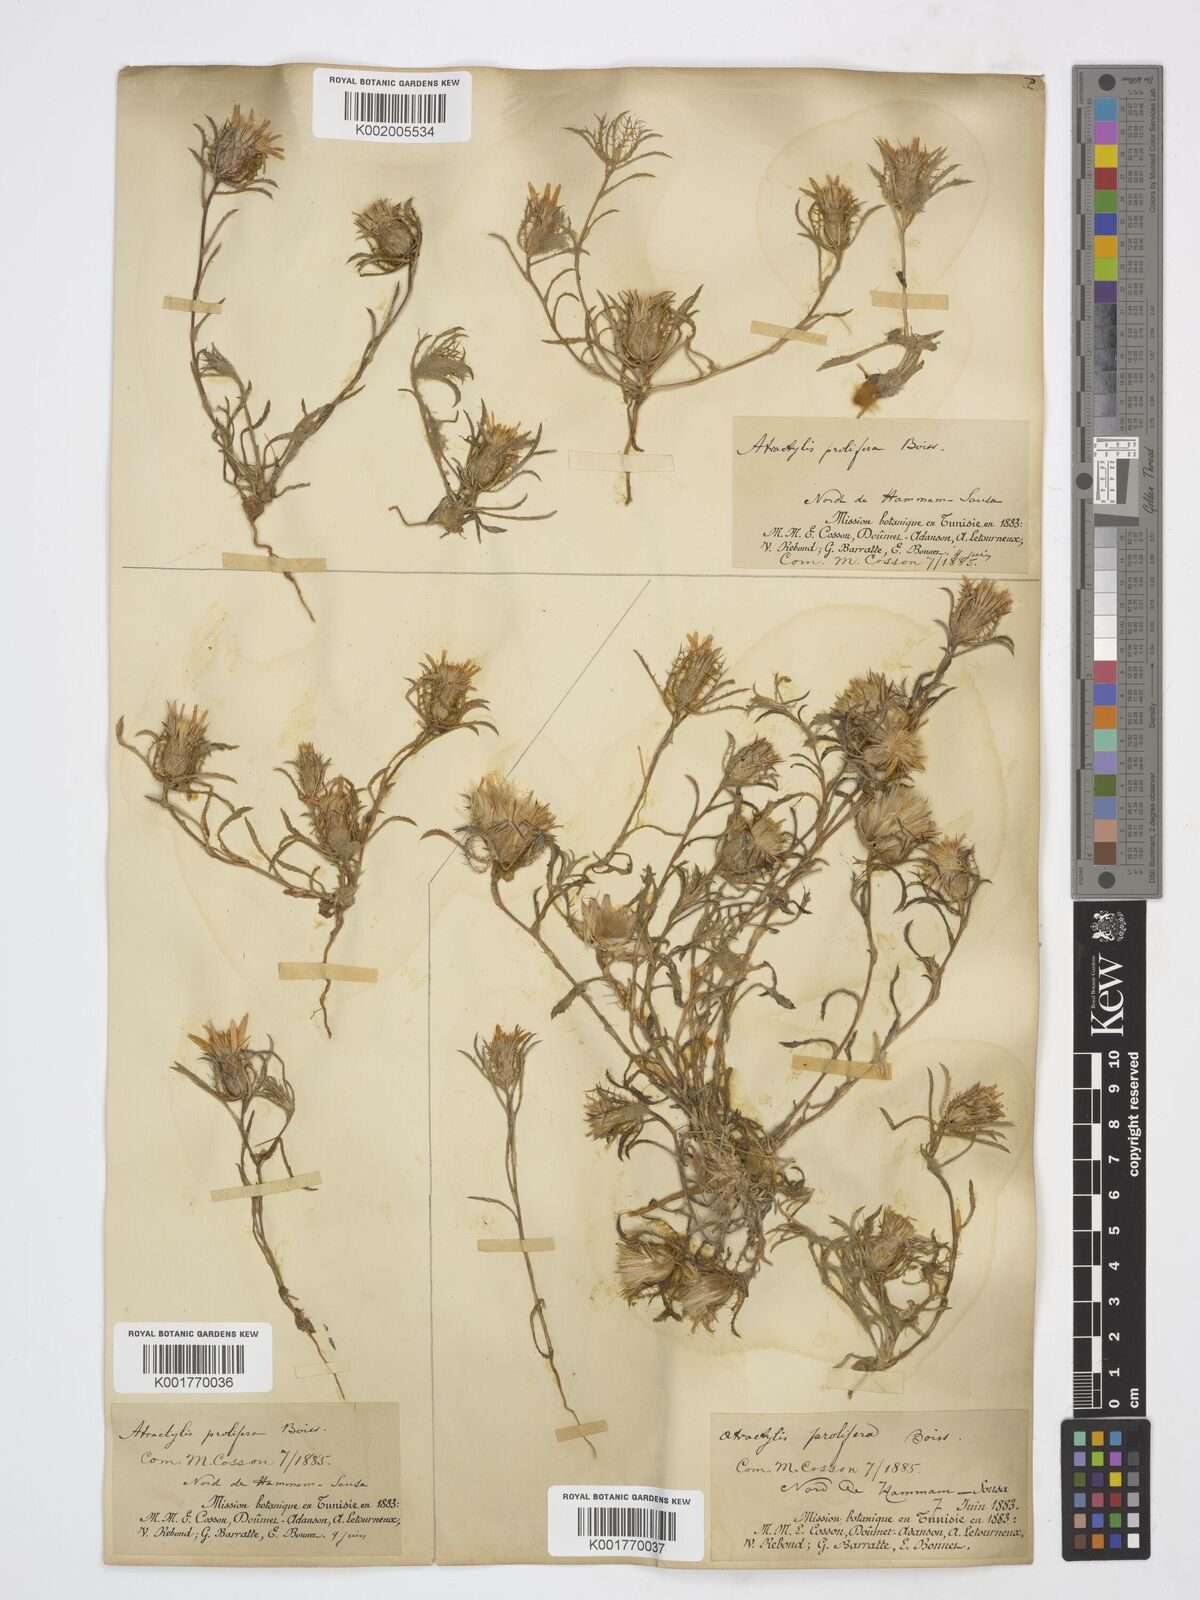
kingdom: Plantae
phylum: Tracheophyta
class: Magnoliopsida
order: Asterales
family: Asteraceae
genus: Atractylis
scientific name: Atractylis prolifera
